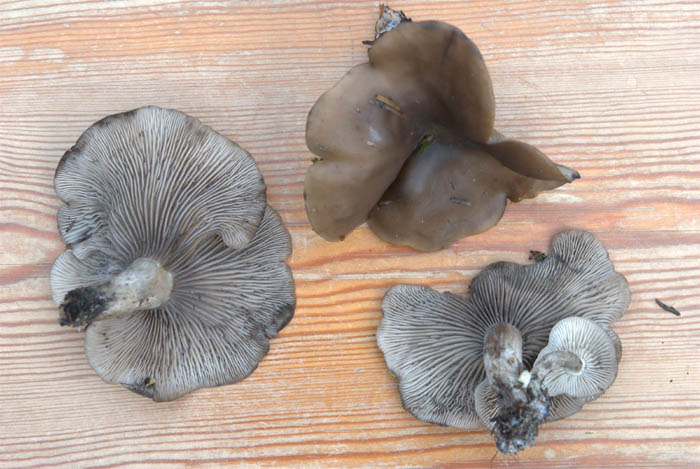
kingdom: Fungi
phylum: Basidiomycota
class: Agaricomycetes
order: Agaricales
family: Lyophyllaceae
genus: Lyophyllum
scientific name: Lyophyllum semitale
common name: sværtende gråblad
